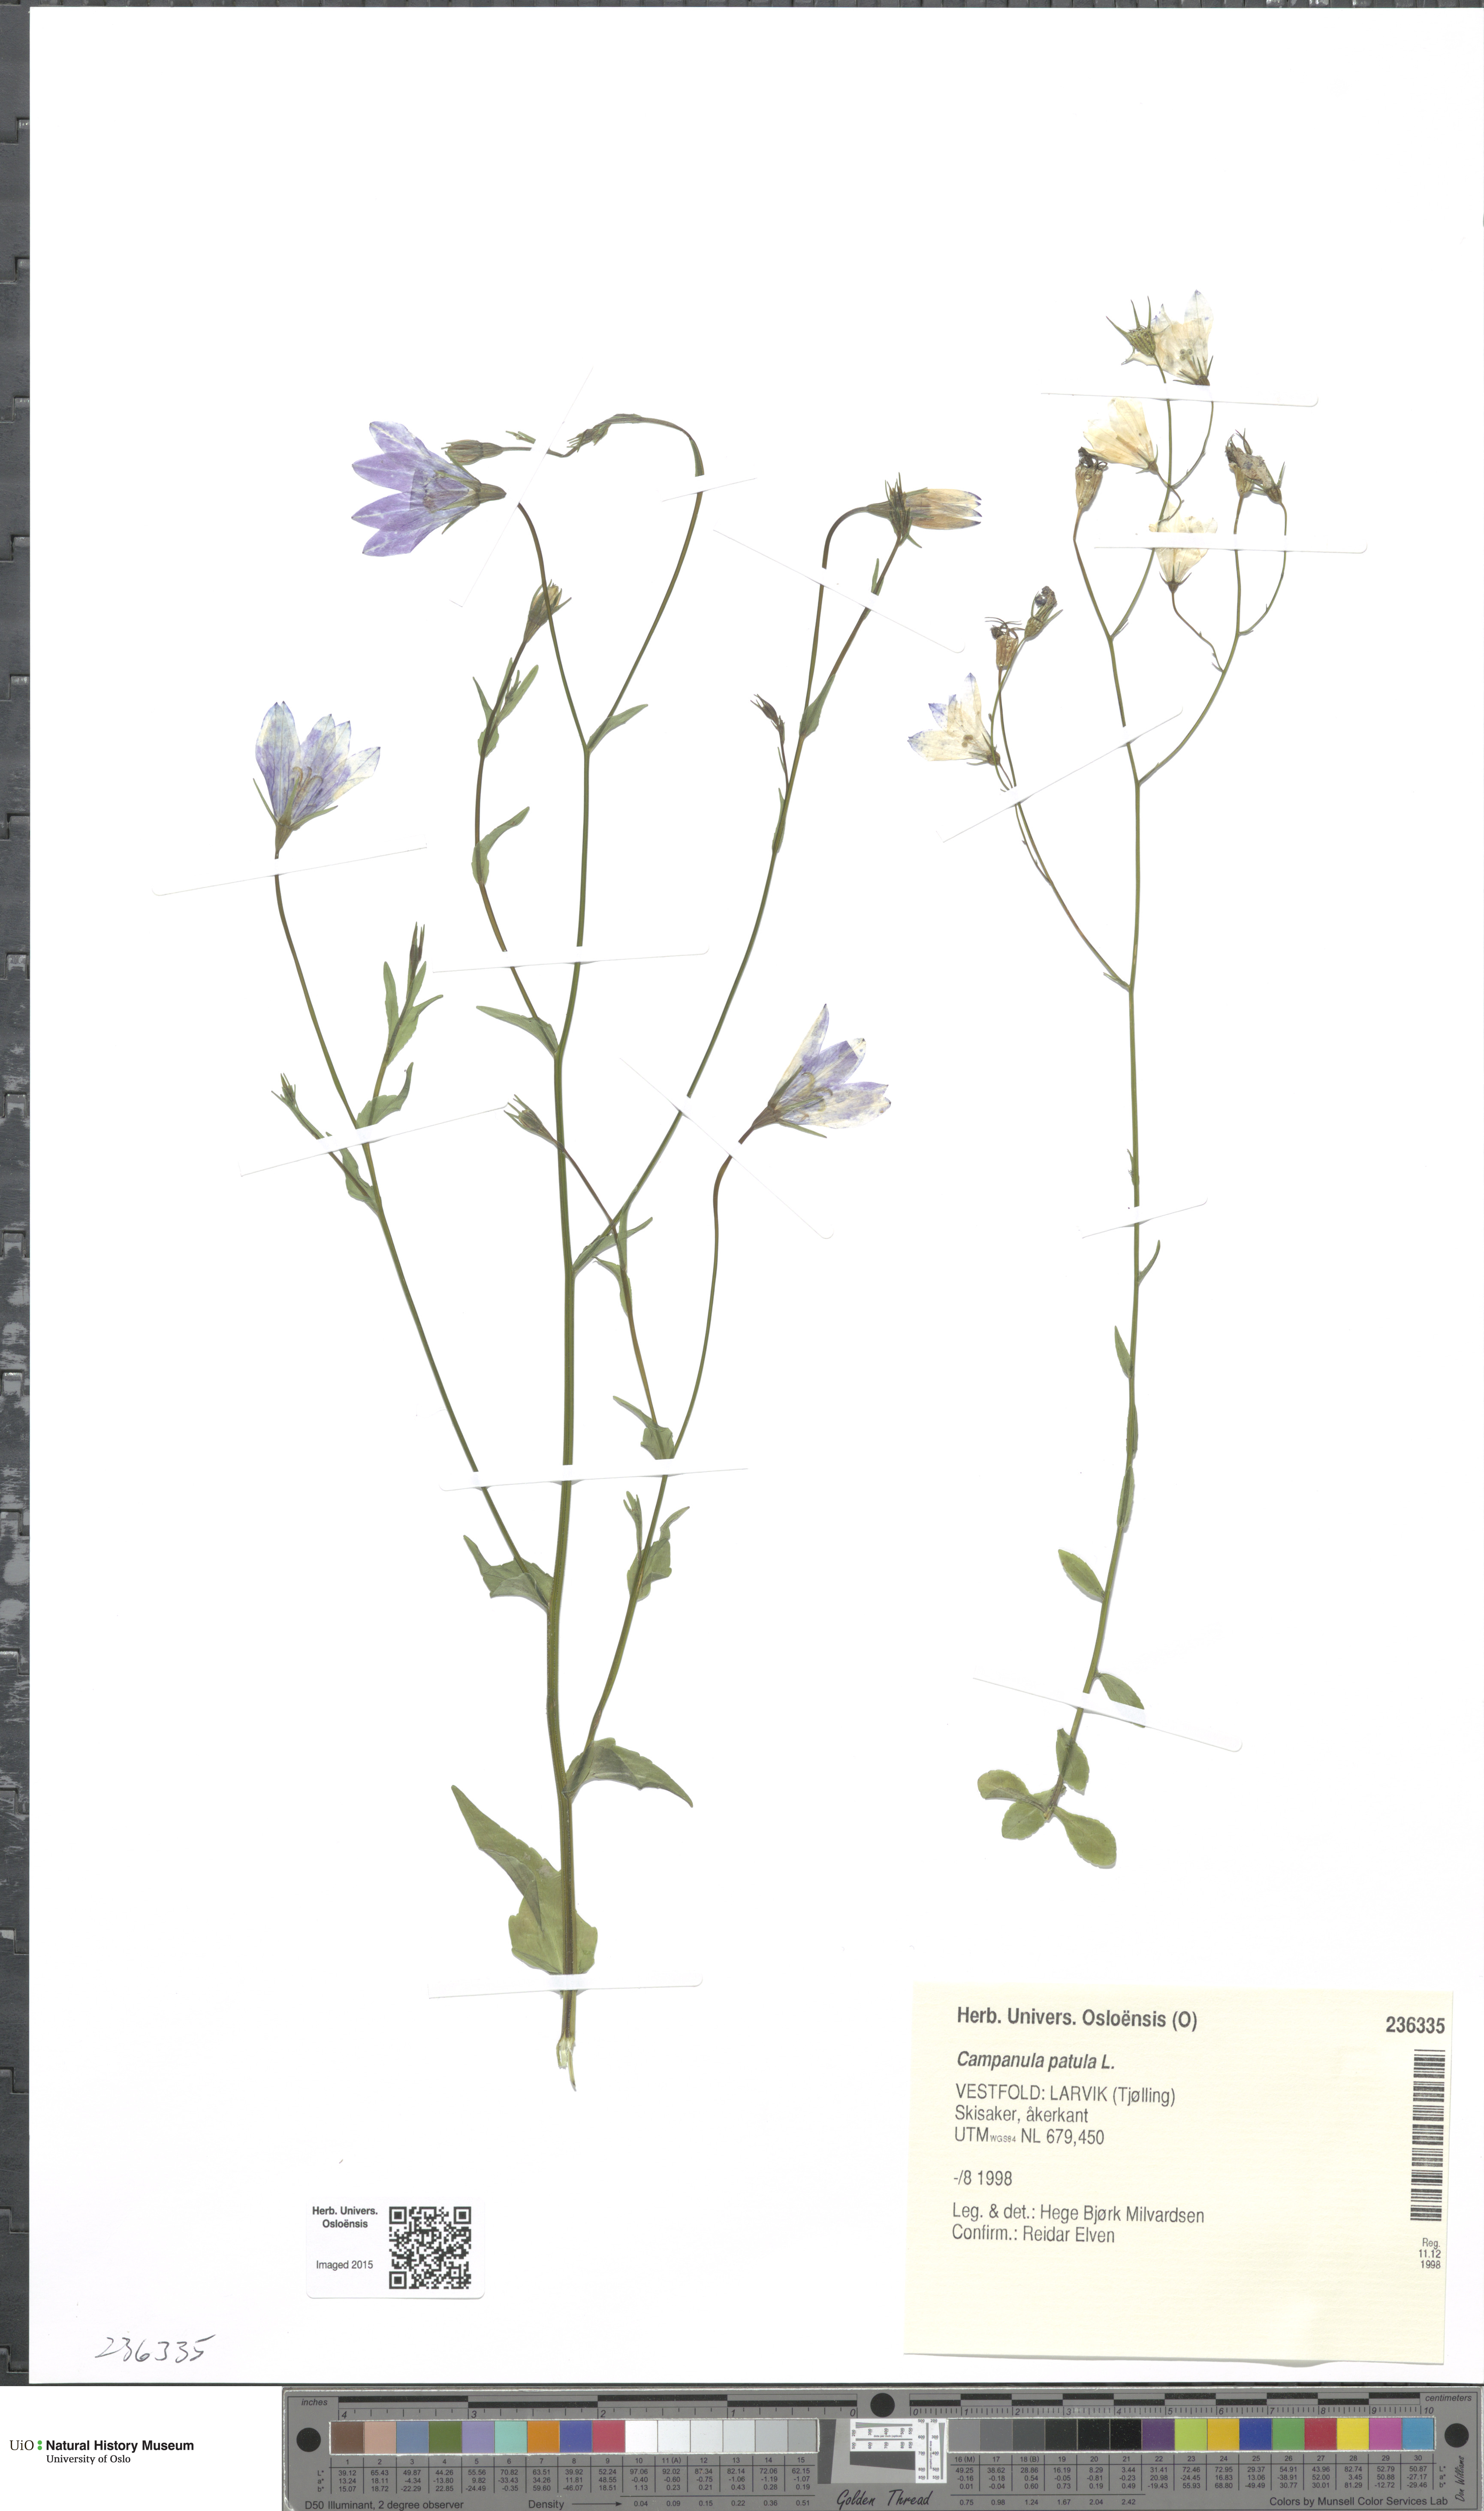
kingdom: Plantae
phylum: Tracheophyta
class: Magnoliopsida
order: Asterales
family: Campanulaceae
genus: Campanula
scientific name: Campanula patula
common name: Spreading bellflower
